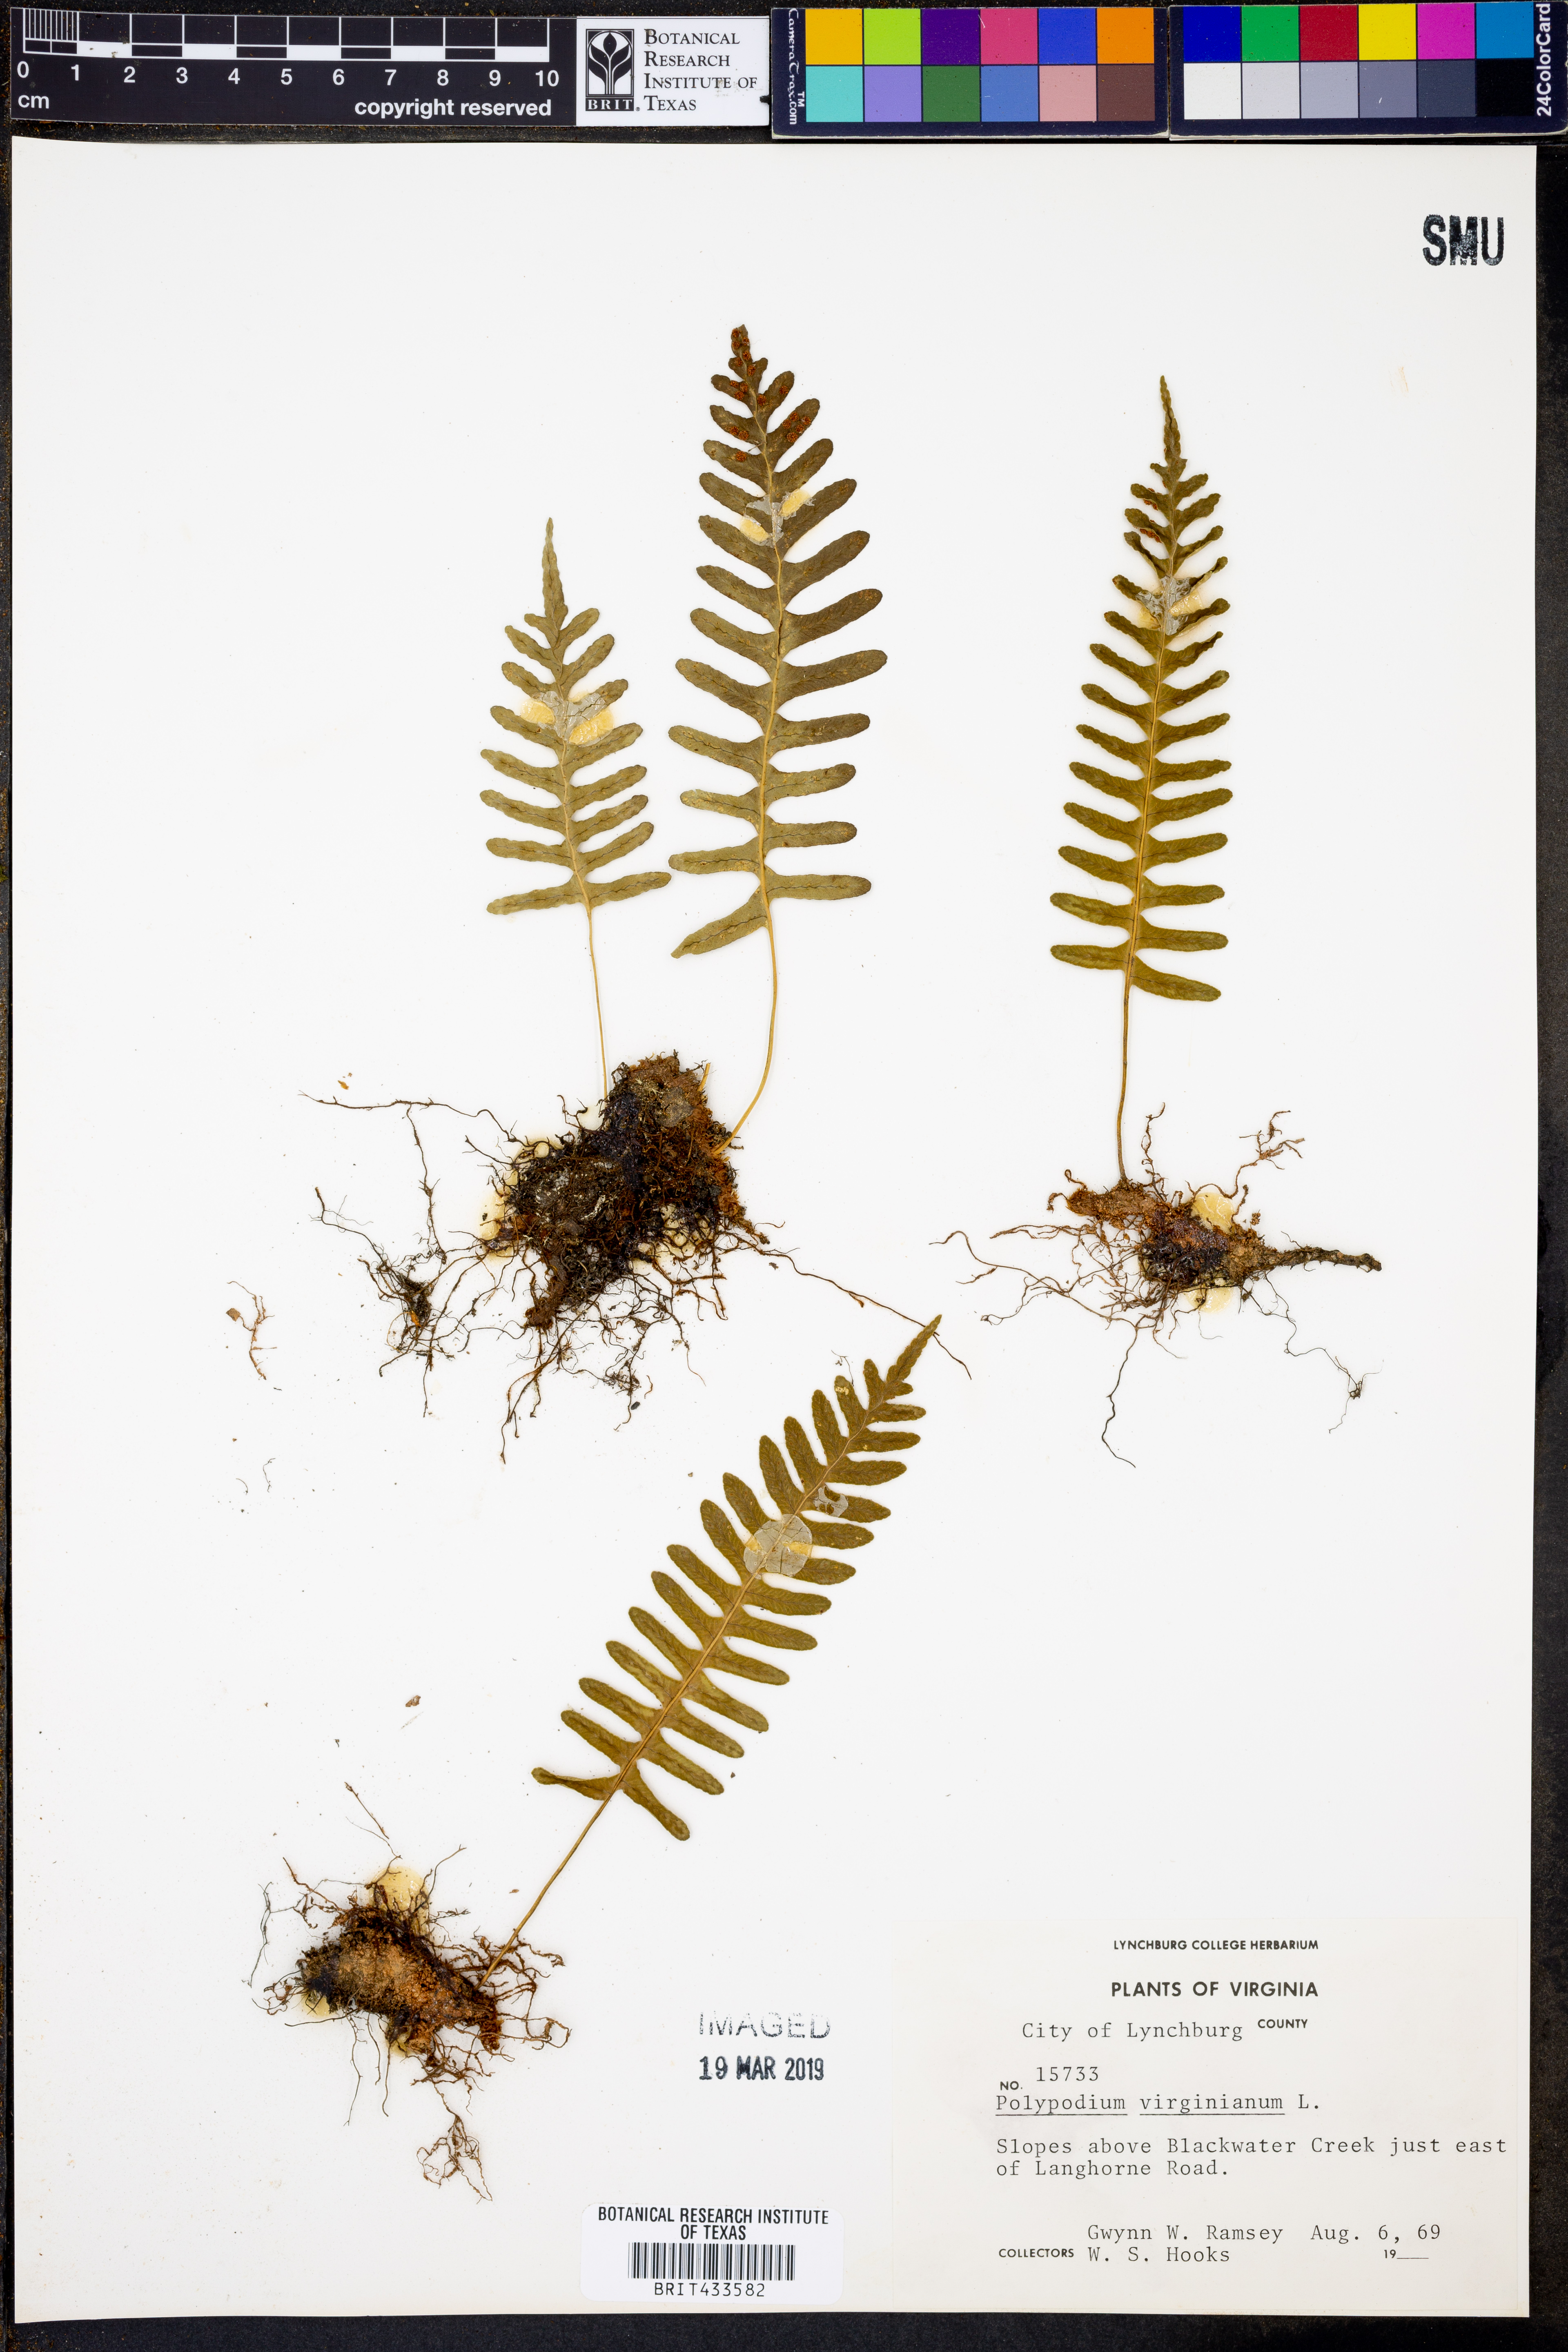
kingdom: Plantae
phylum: Tracheophyta
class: Polypodiopsida
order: Polypodiales
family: Polypodiaceae
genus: Polypodium
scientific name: Polypodium virginianum
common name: American wall fern
